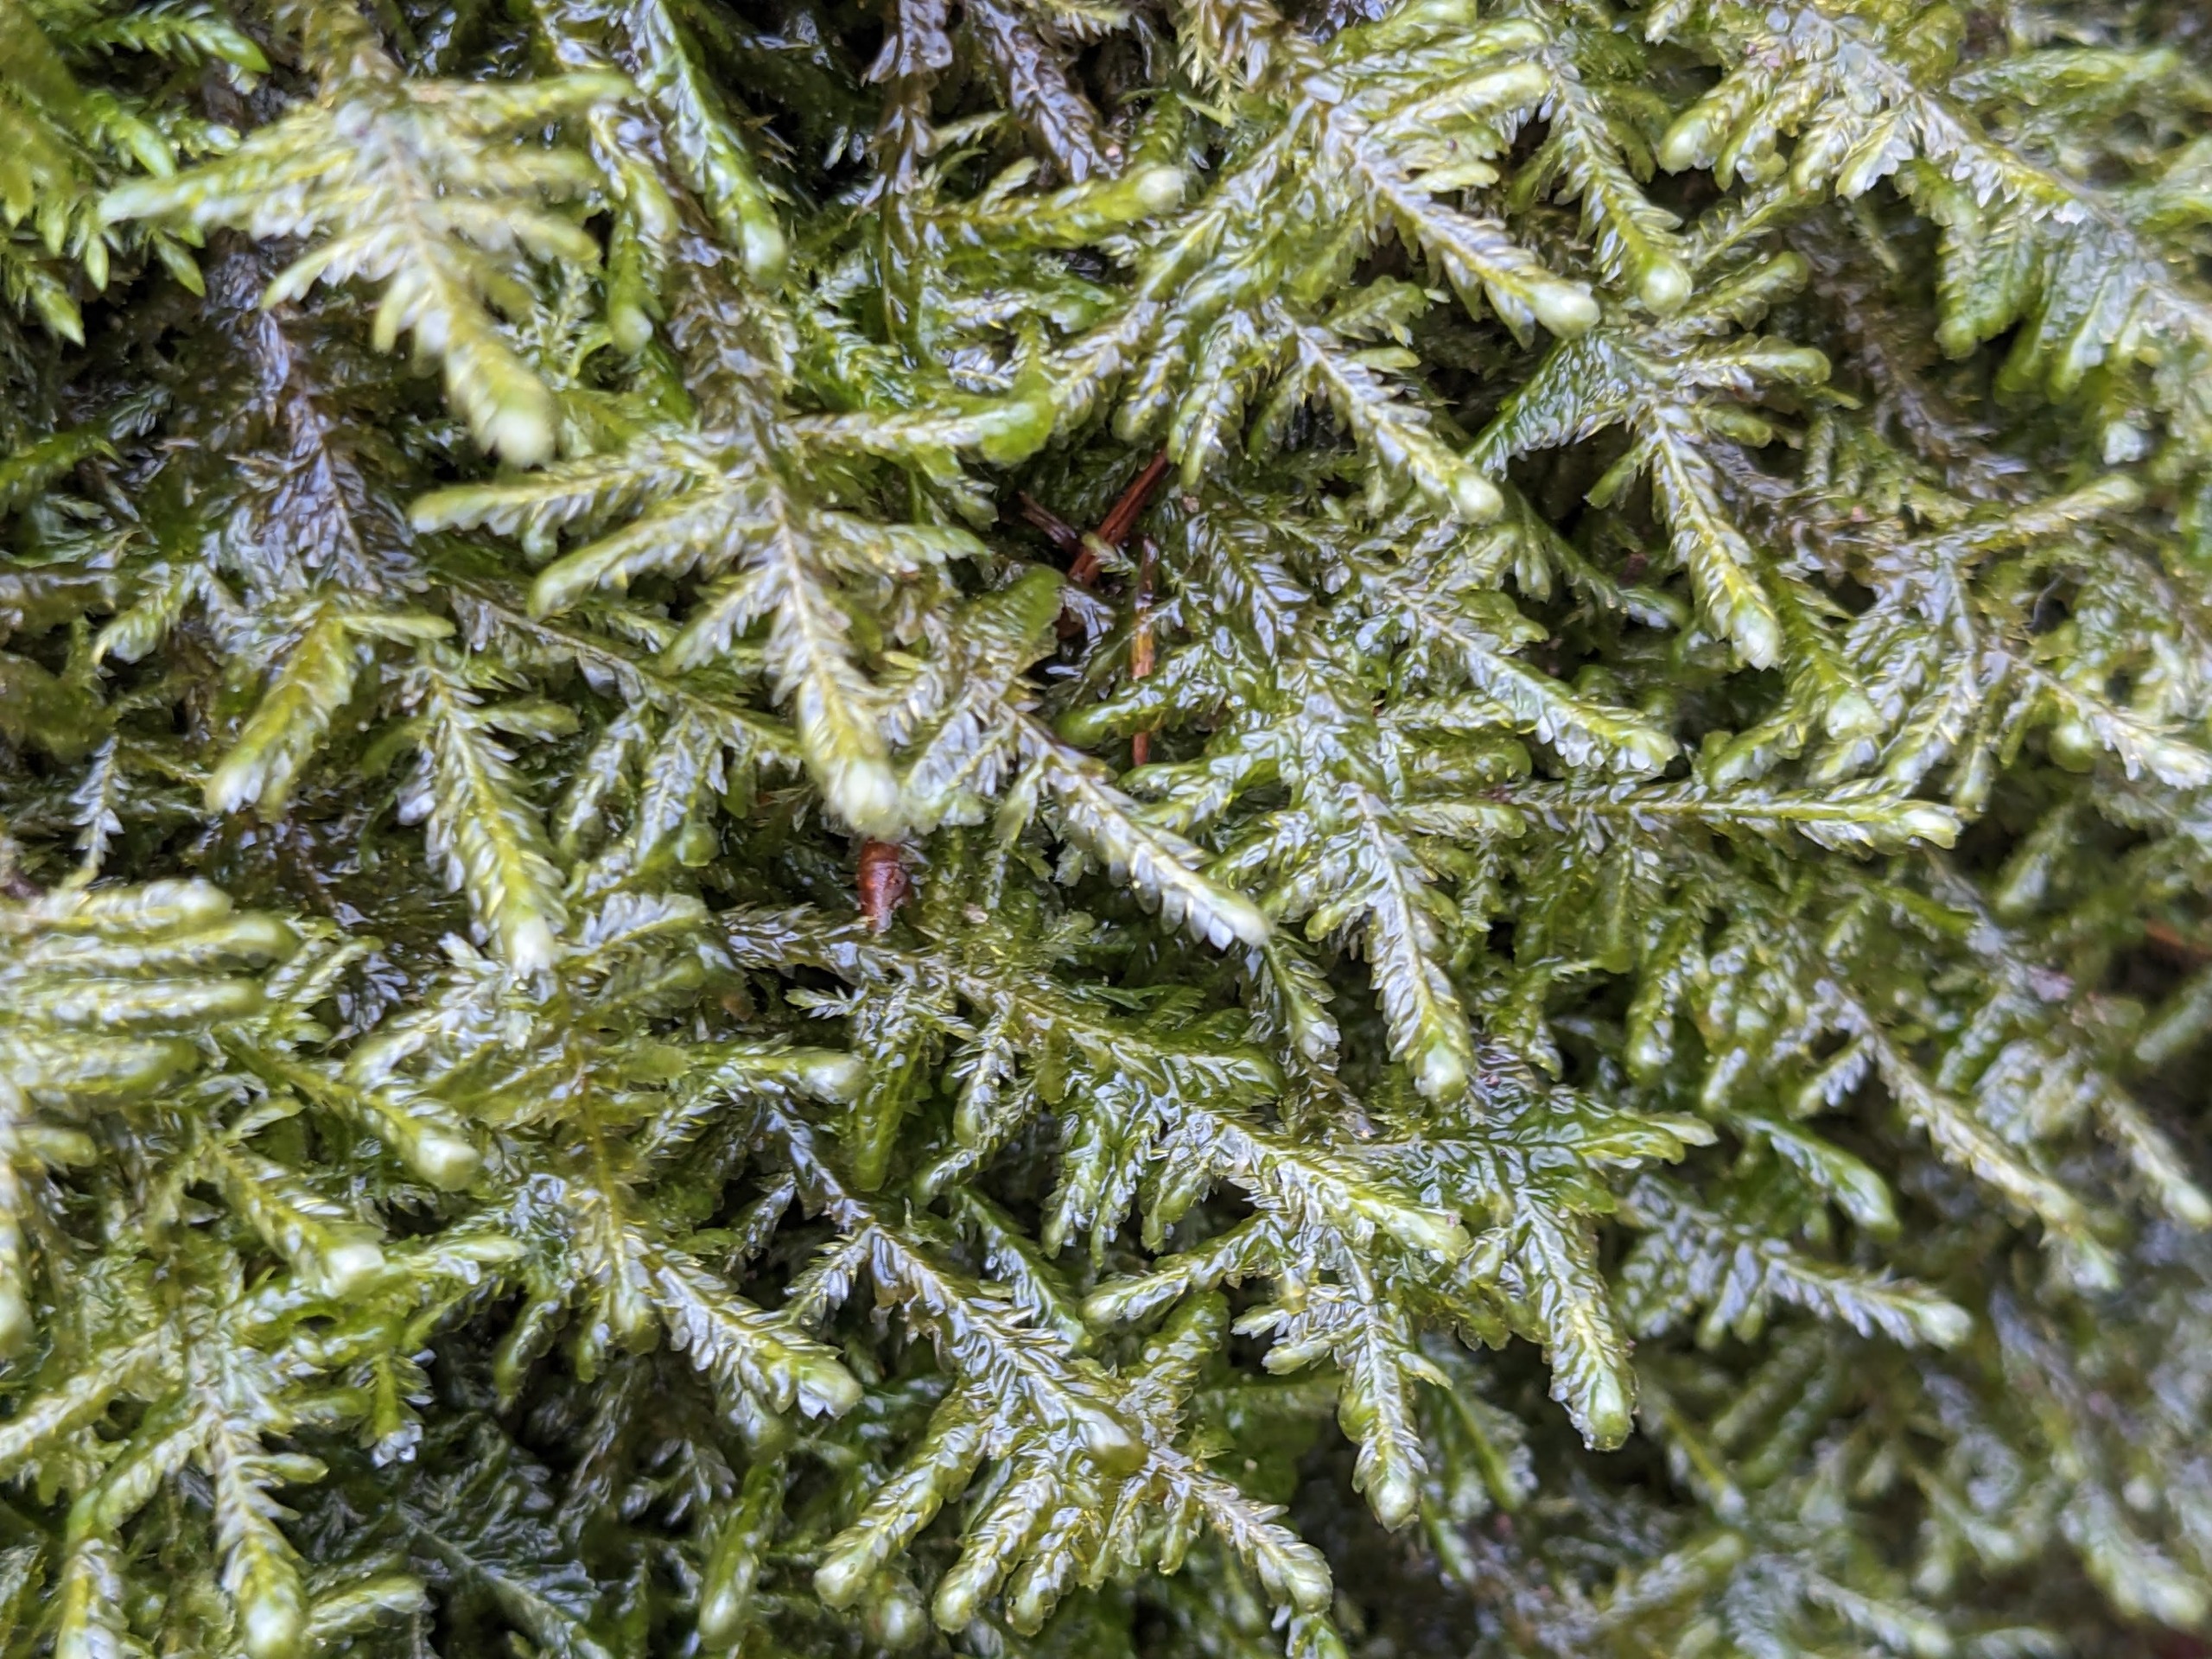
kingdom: Plantae
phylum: Bryophyta
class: Bryopsida
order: Hypnales
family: Neckeraceae
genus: Alleniella
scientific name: Alleniella complanata
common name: Almindelig fladmos
